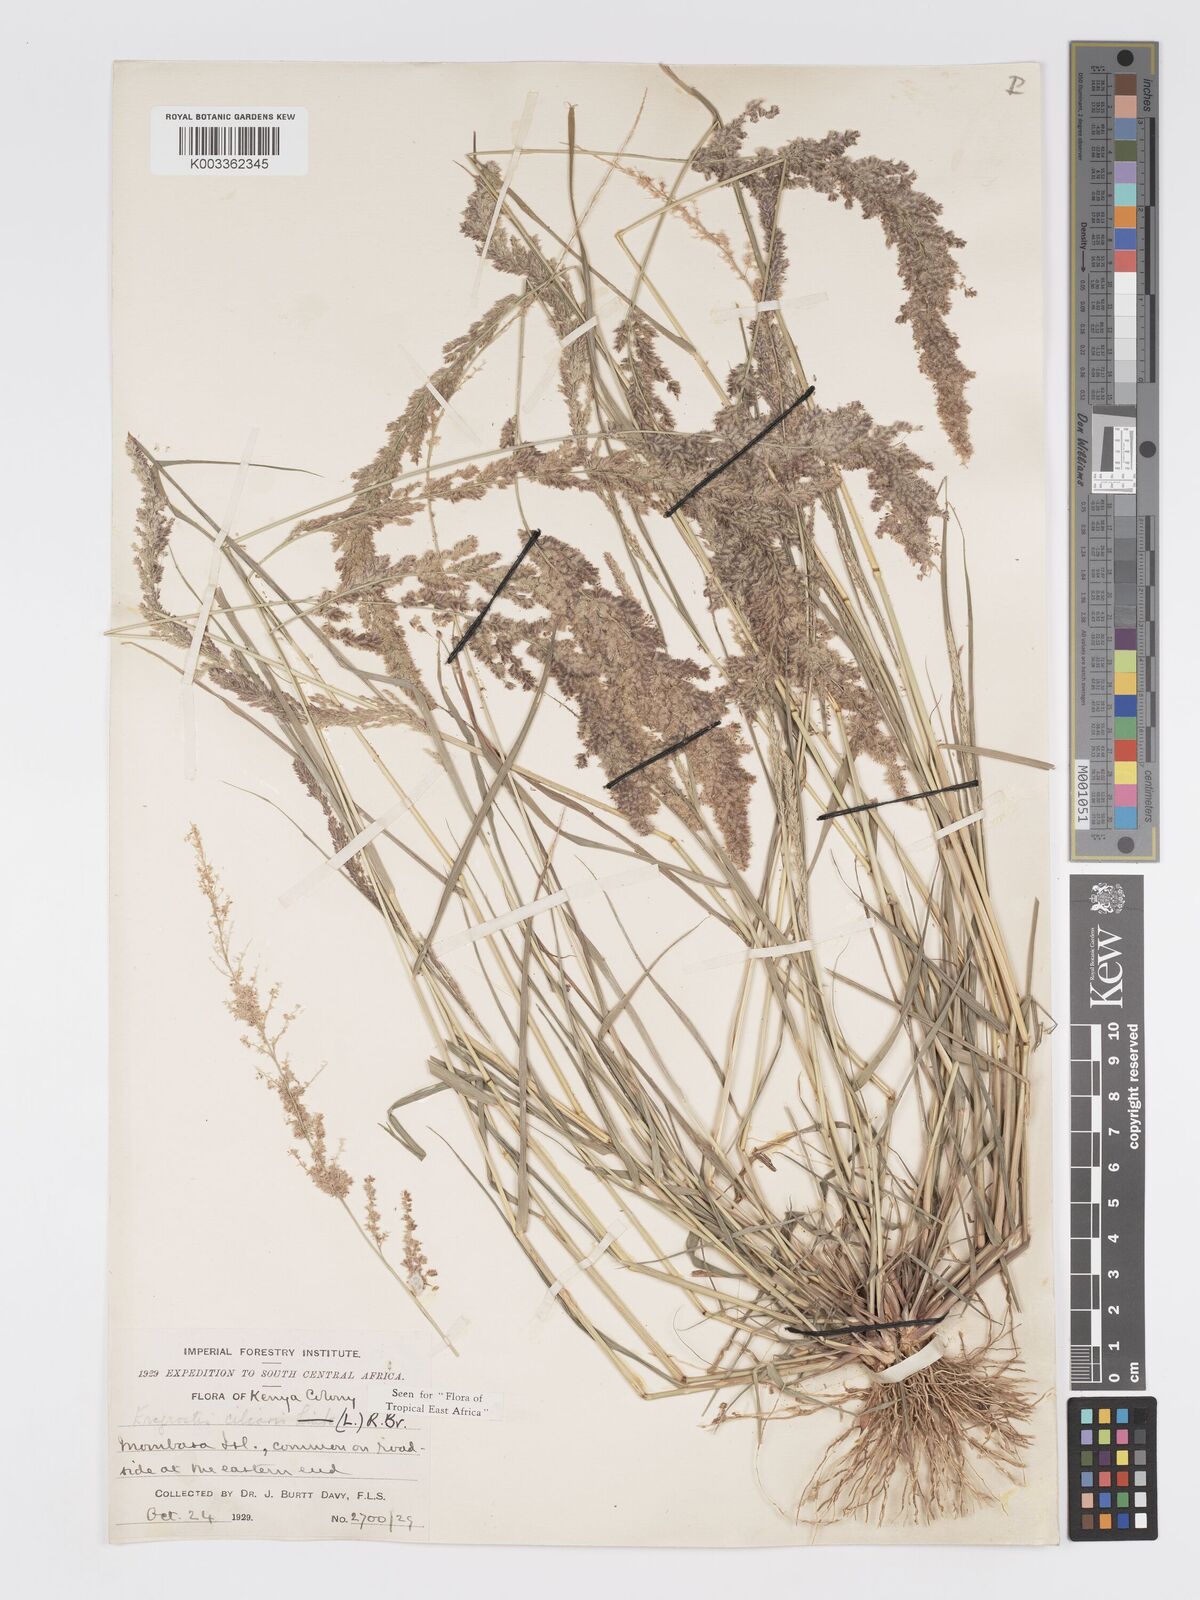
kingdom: Plantae
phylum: Tracheophyta
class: Liliopsida
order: Poales
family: Poaceae
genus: Eragrostis
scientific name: Eragrostis ciliaris
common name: Gophertail lovegrass
